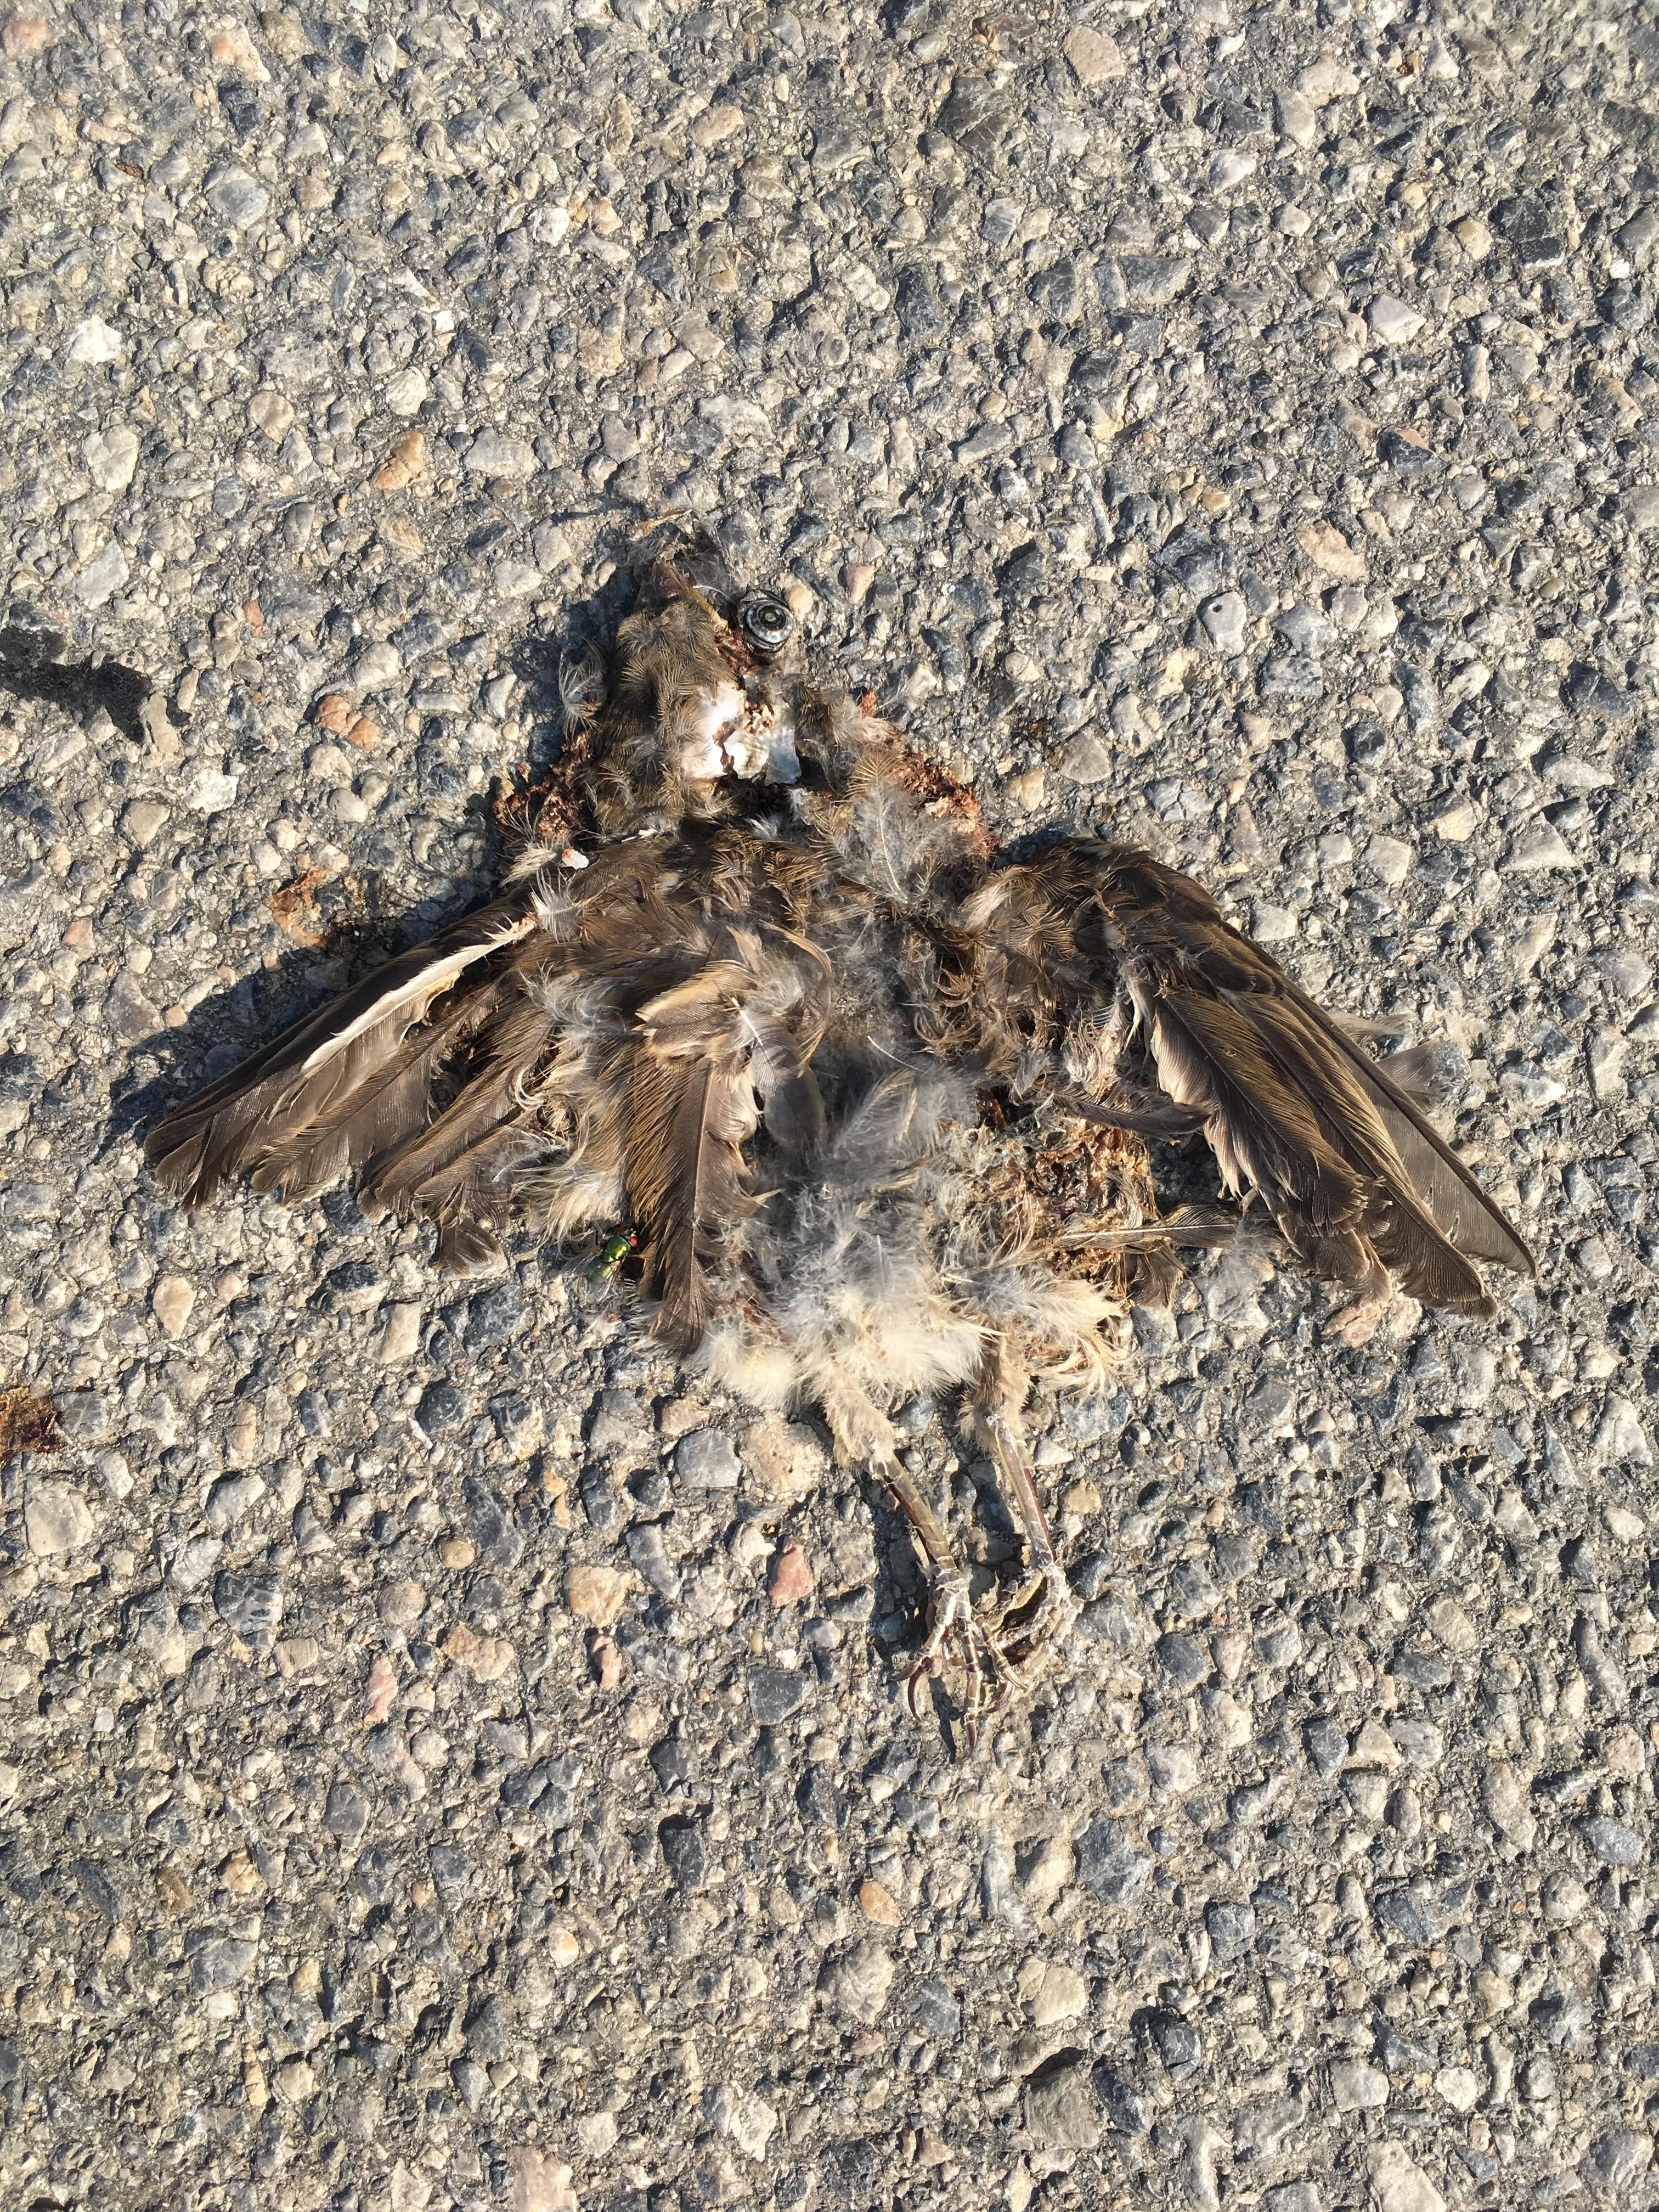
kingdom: Animalia
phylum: Chordata
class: Aves
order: Passeriformes
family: Passeridae
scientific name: Passeridae
